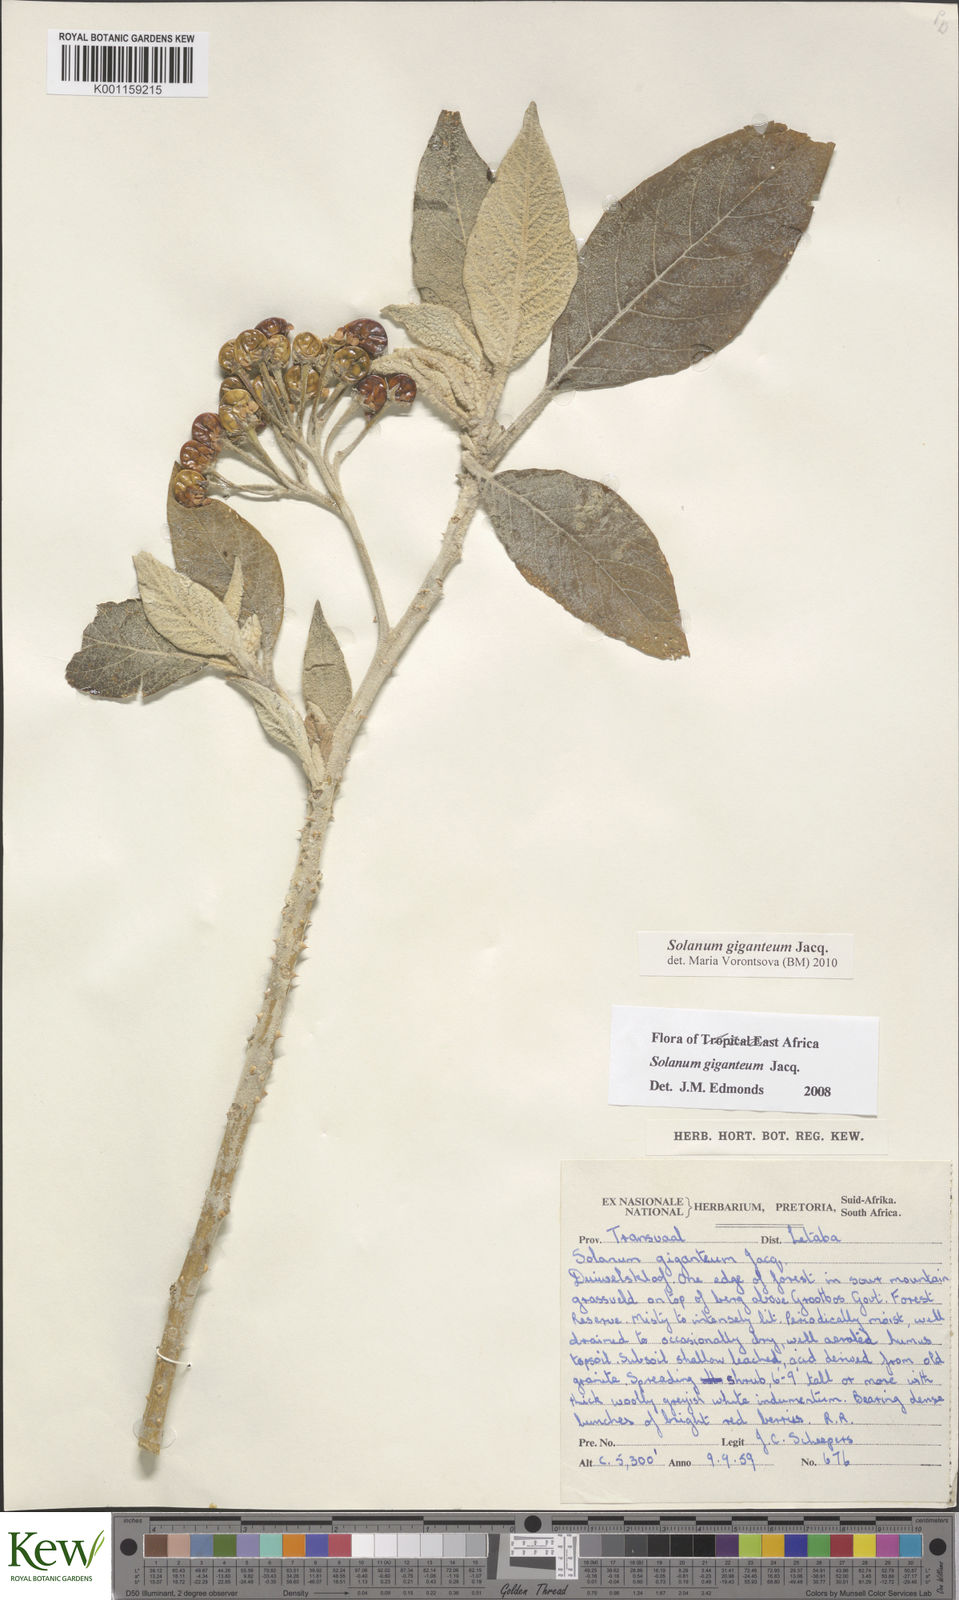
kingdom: Plantae
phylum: Tracheophyta
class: Magnoliopsida
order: Solanales
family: Solanaceae
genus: Solanum
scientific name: Solanum giganteum
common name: Healing-leaf-tree
